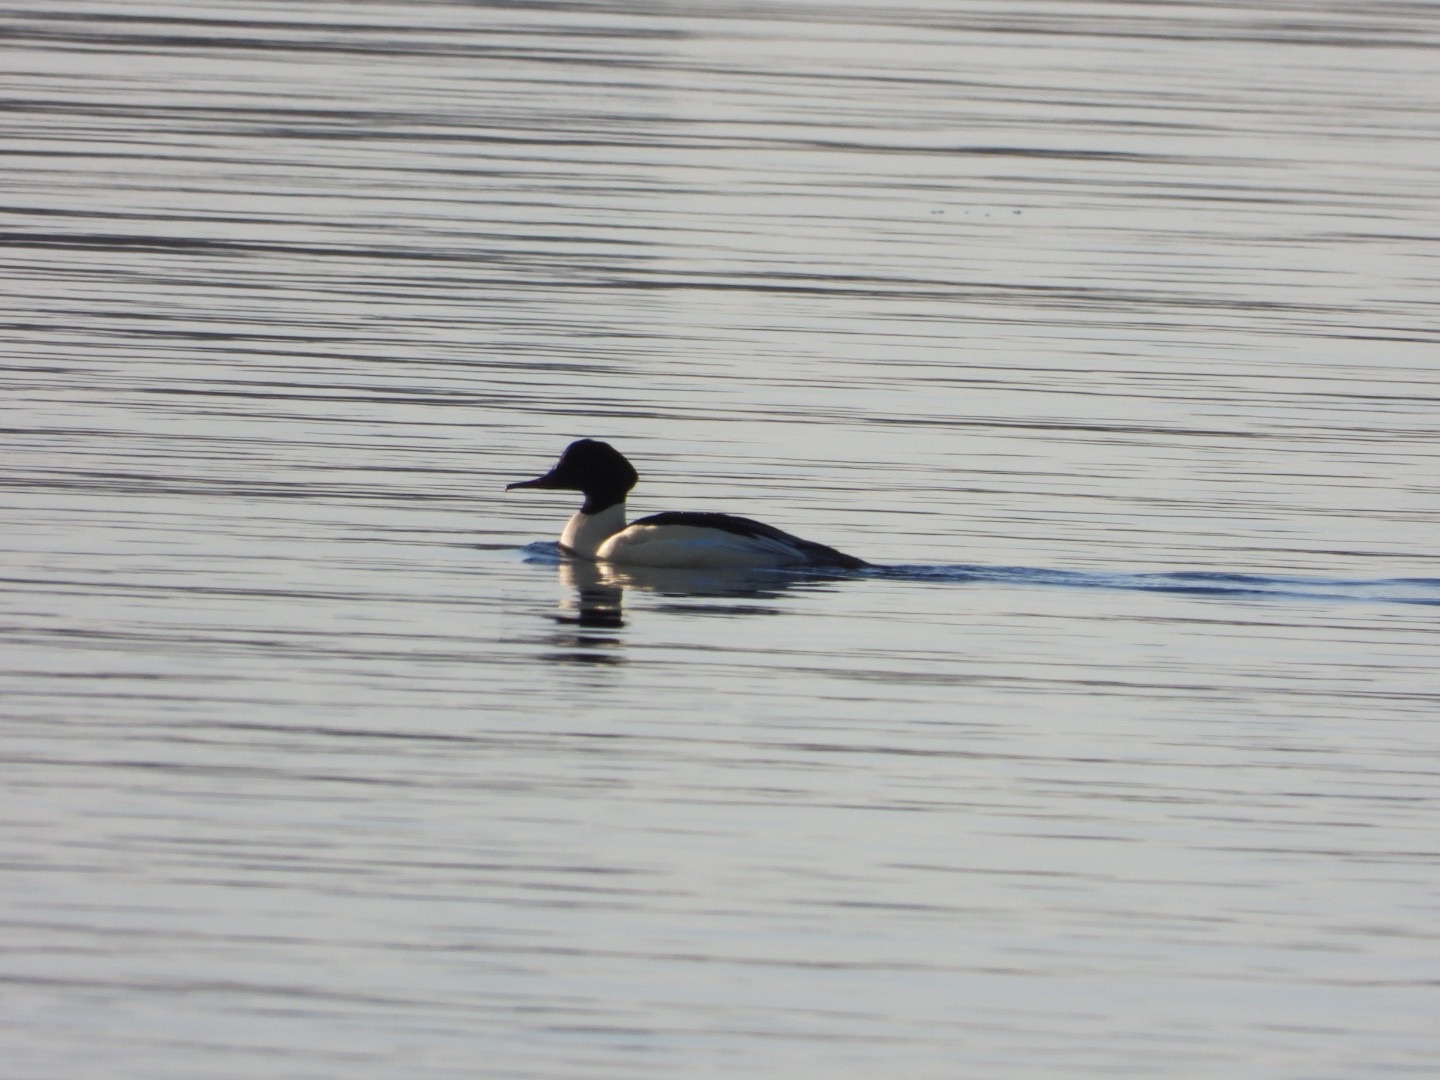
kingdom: Animalia
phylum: Chordata
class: Aves
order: Anseriformes
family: Anatidae
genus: Mergus
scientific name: Mergus merganser
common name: Stor skallesluger
